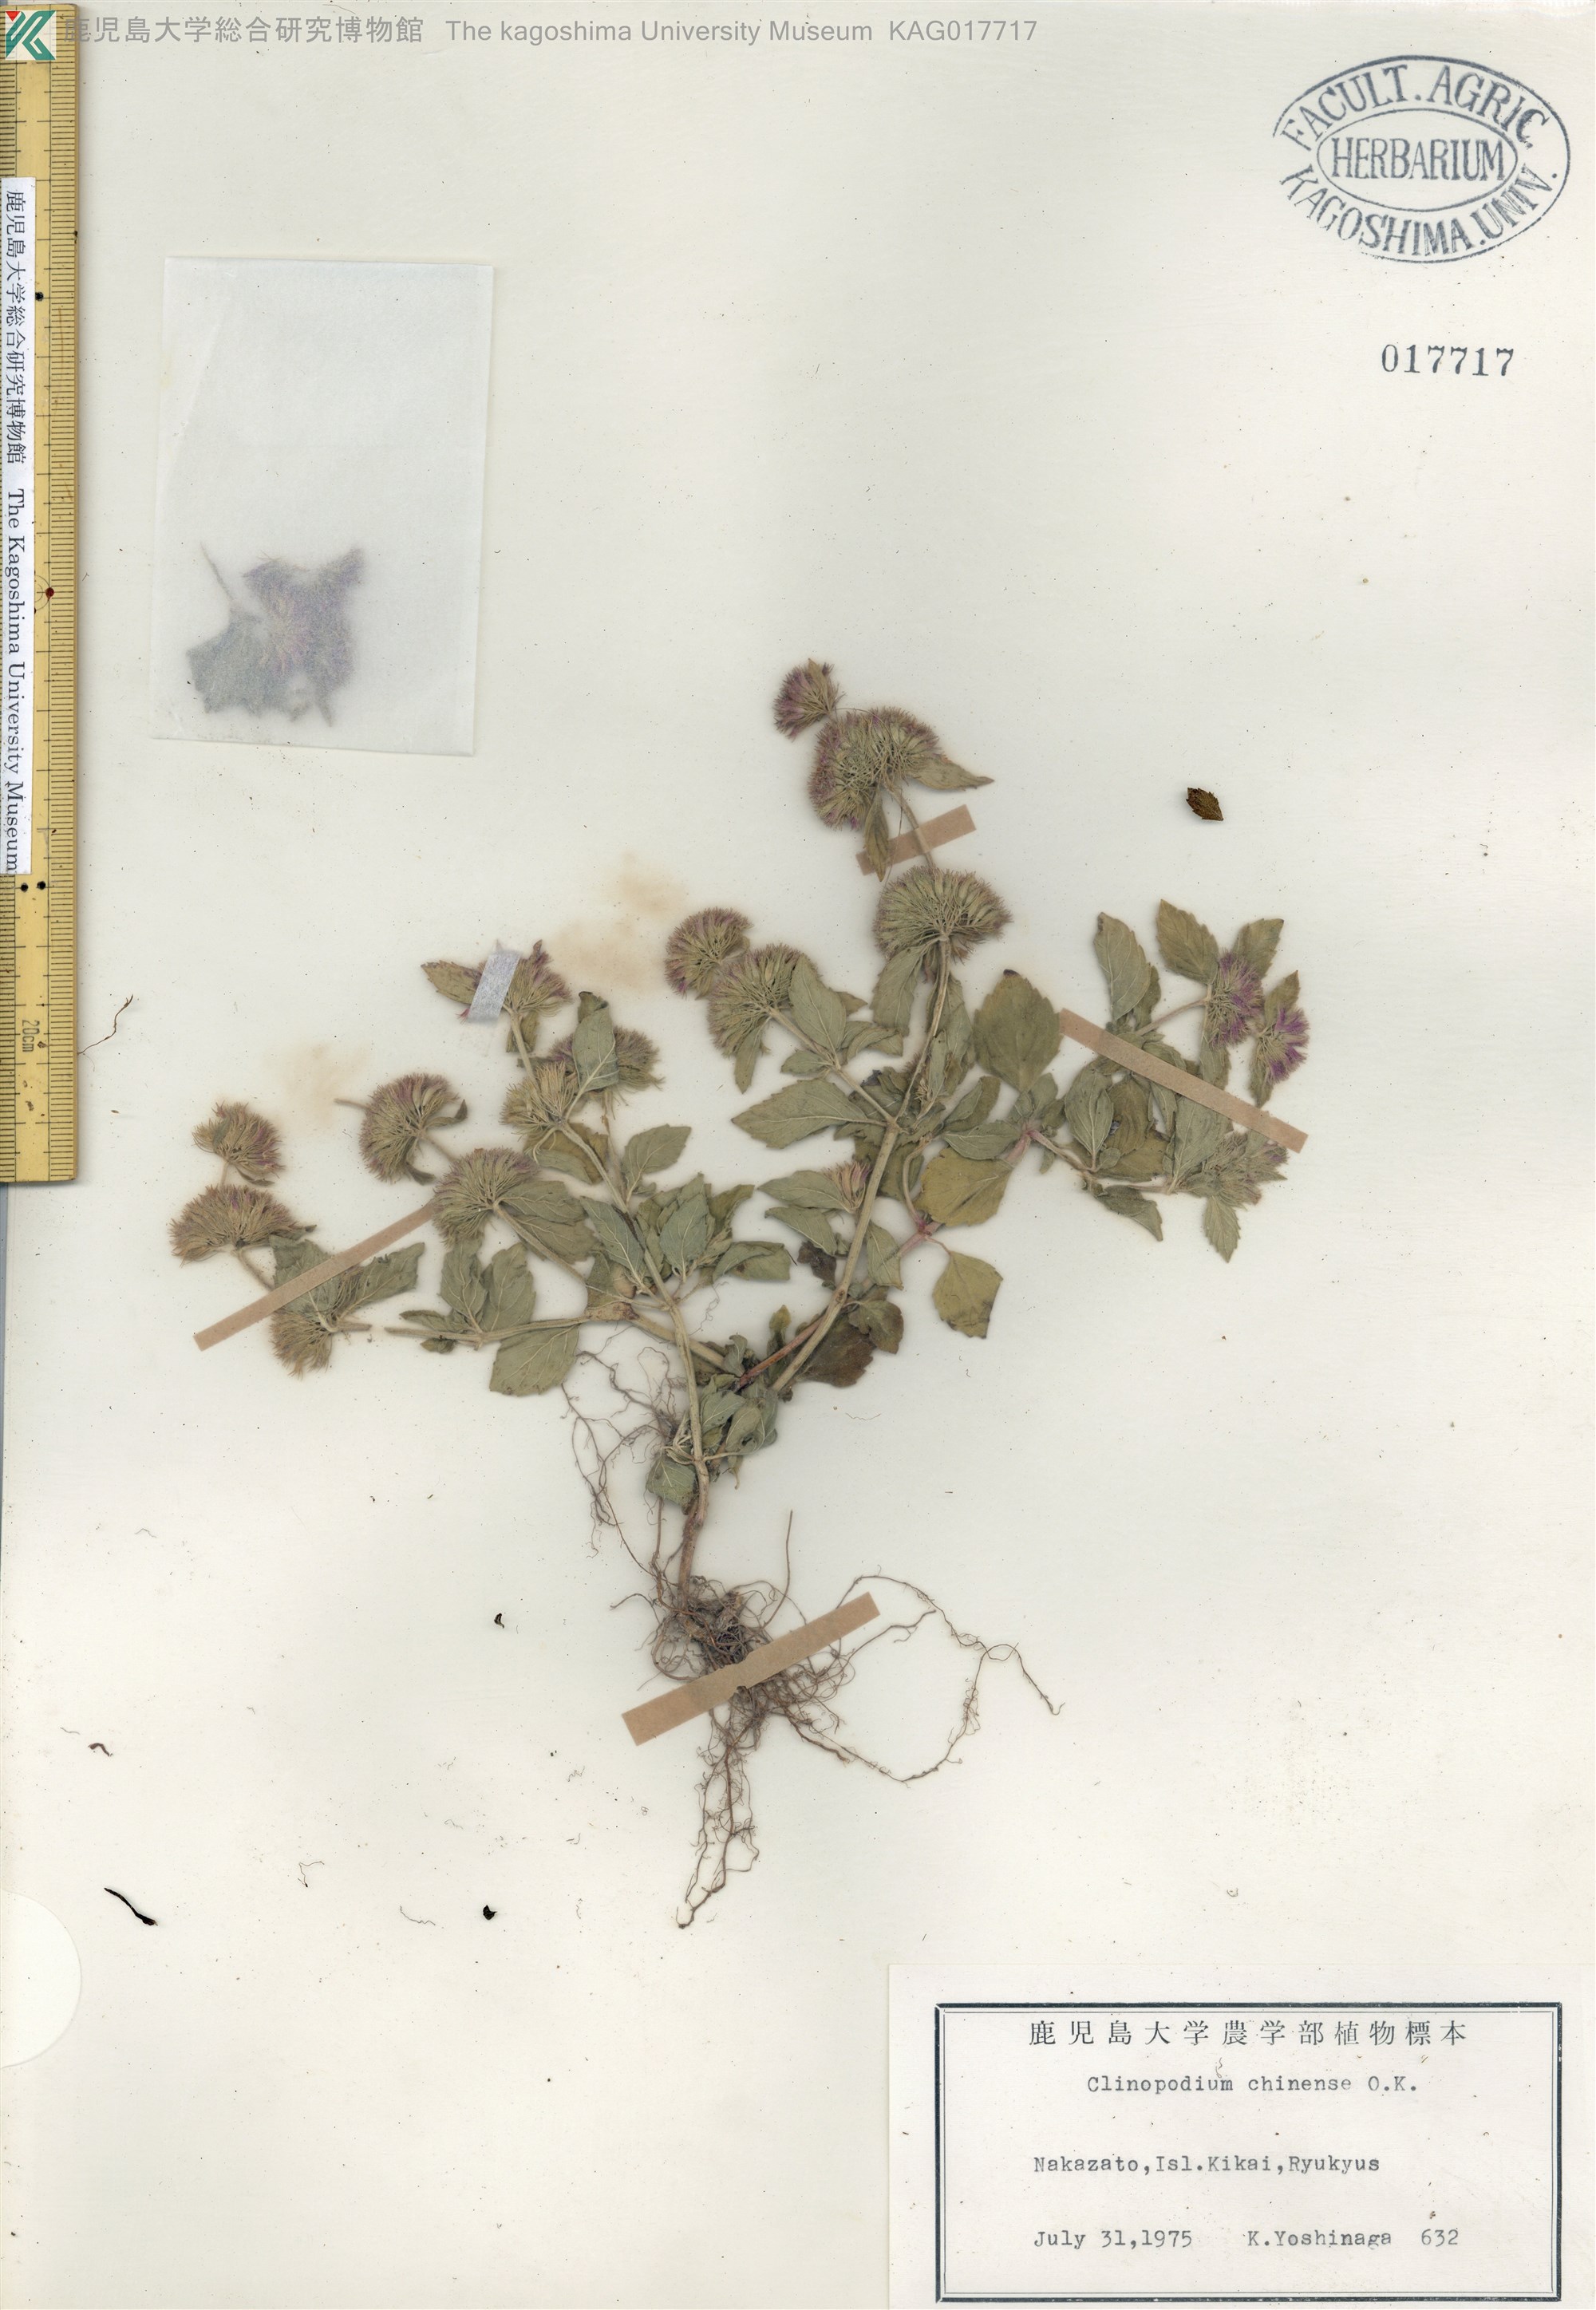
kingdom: Plantae
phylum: Tracheophyta
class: Magnoliopsida
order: Lamiales
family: Lamiaceae
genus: Clinopodium
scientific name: Clinopodium chinense
